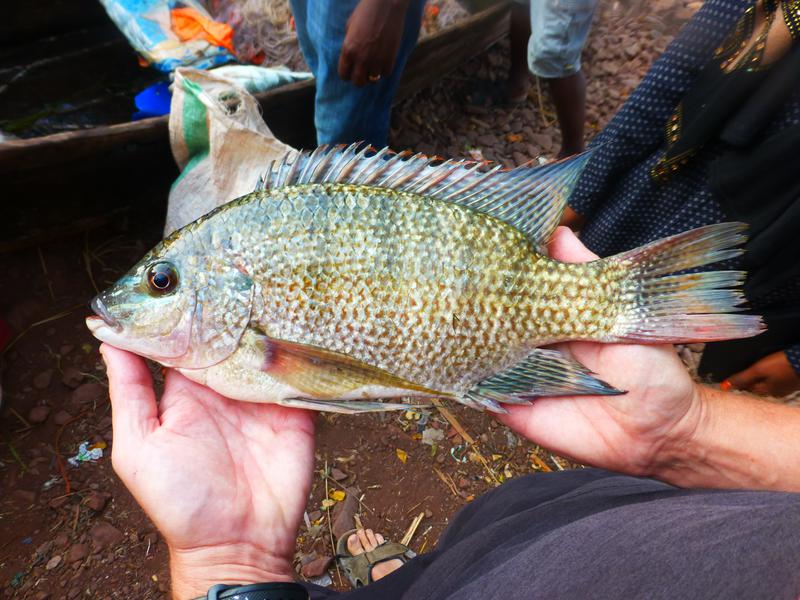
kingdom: Animalia
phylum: Chordata
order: Perciformes
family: Cichlidae
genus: Oreochromis
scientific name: Oreochromis tanganicae
